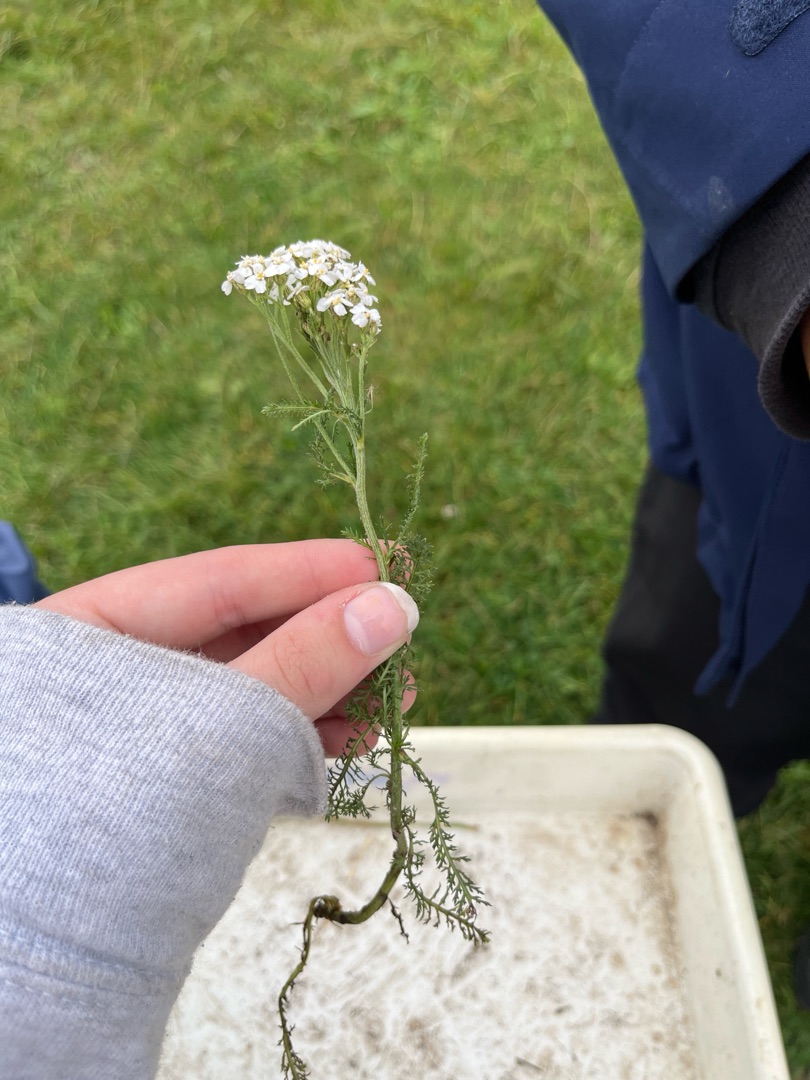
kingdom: Plantae
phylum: Tracheophyta
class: Magnoliopsida
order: Asterales
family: Asteraceae
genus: Achillea
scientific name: Achillea millefolium
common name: Almindelig røllike
